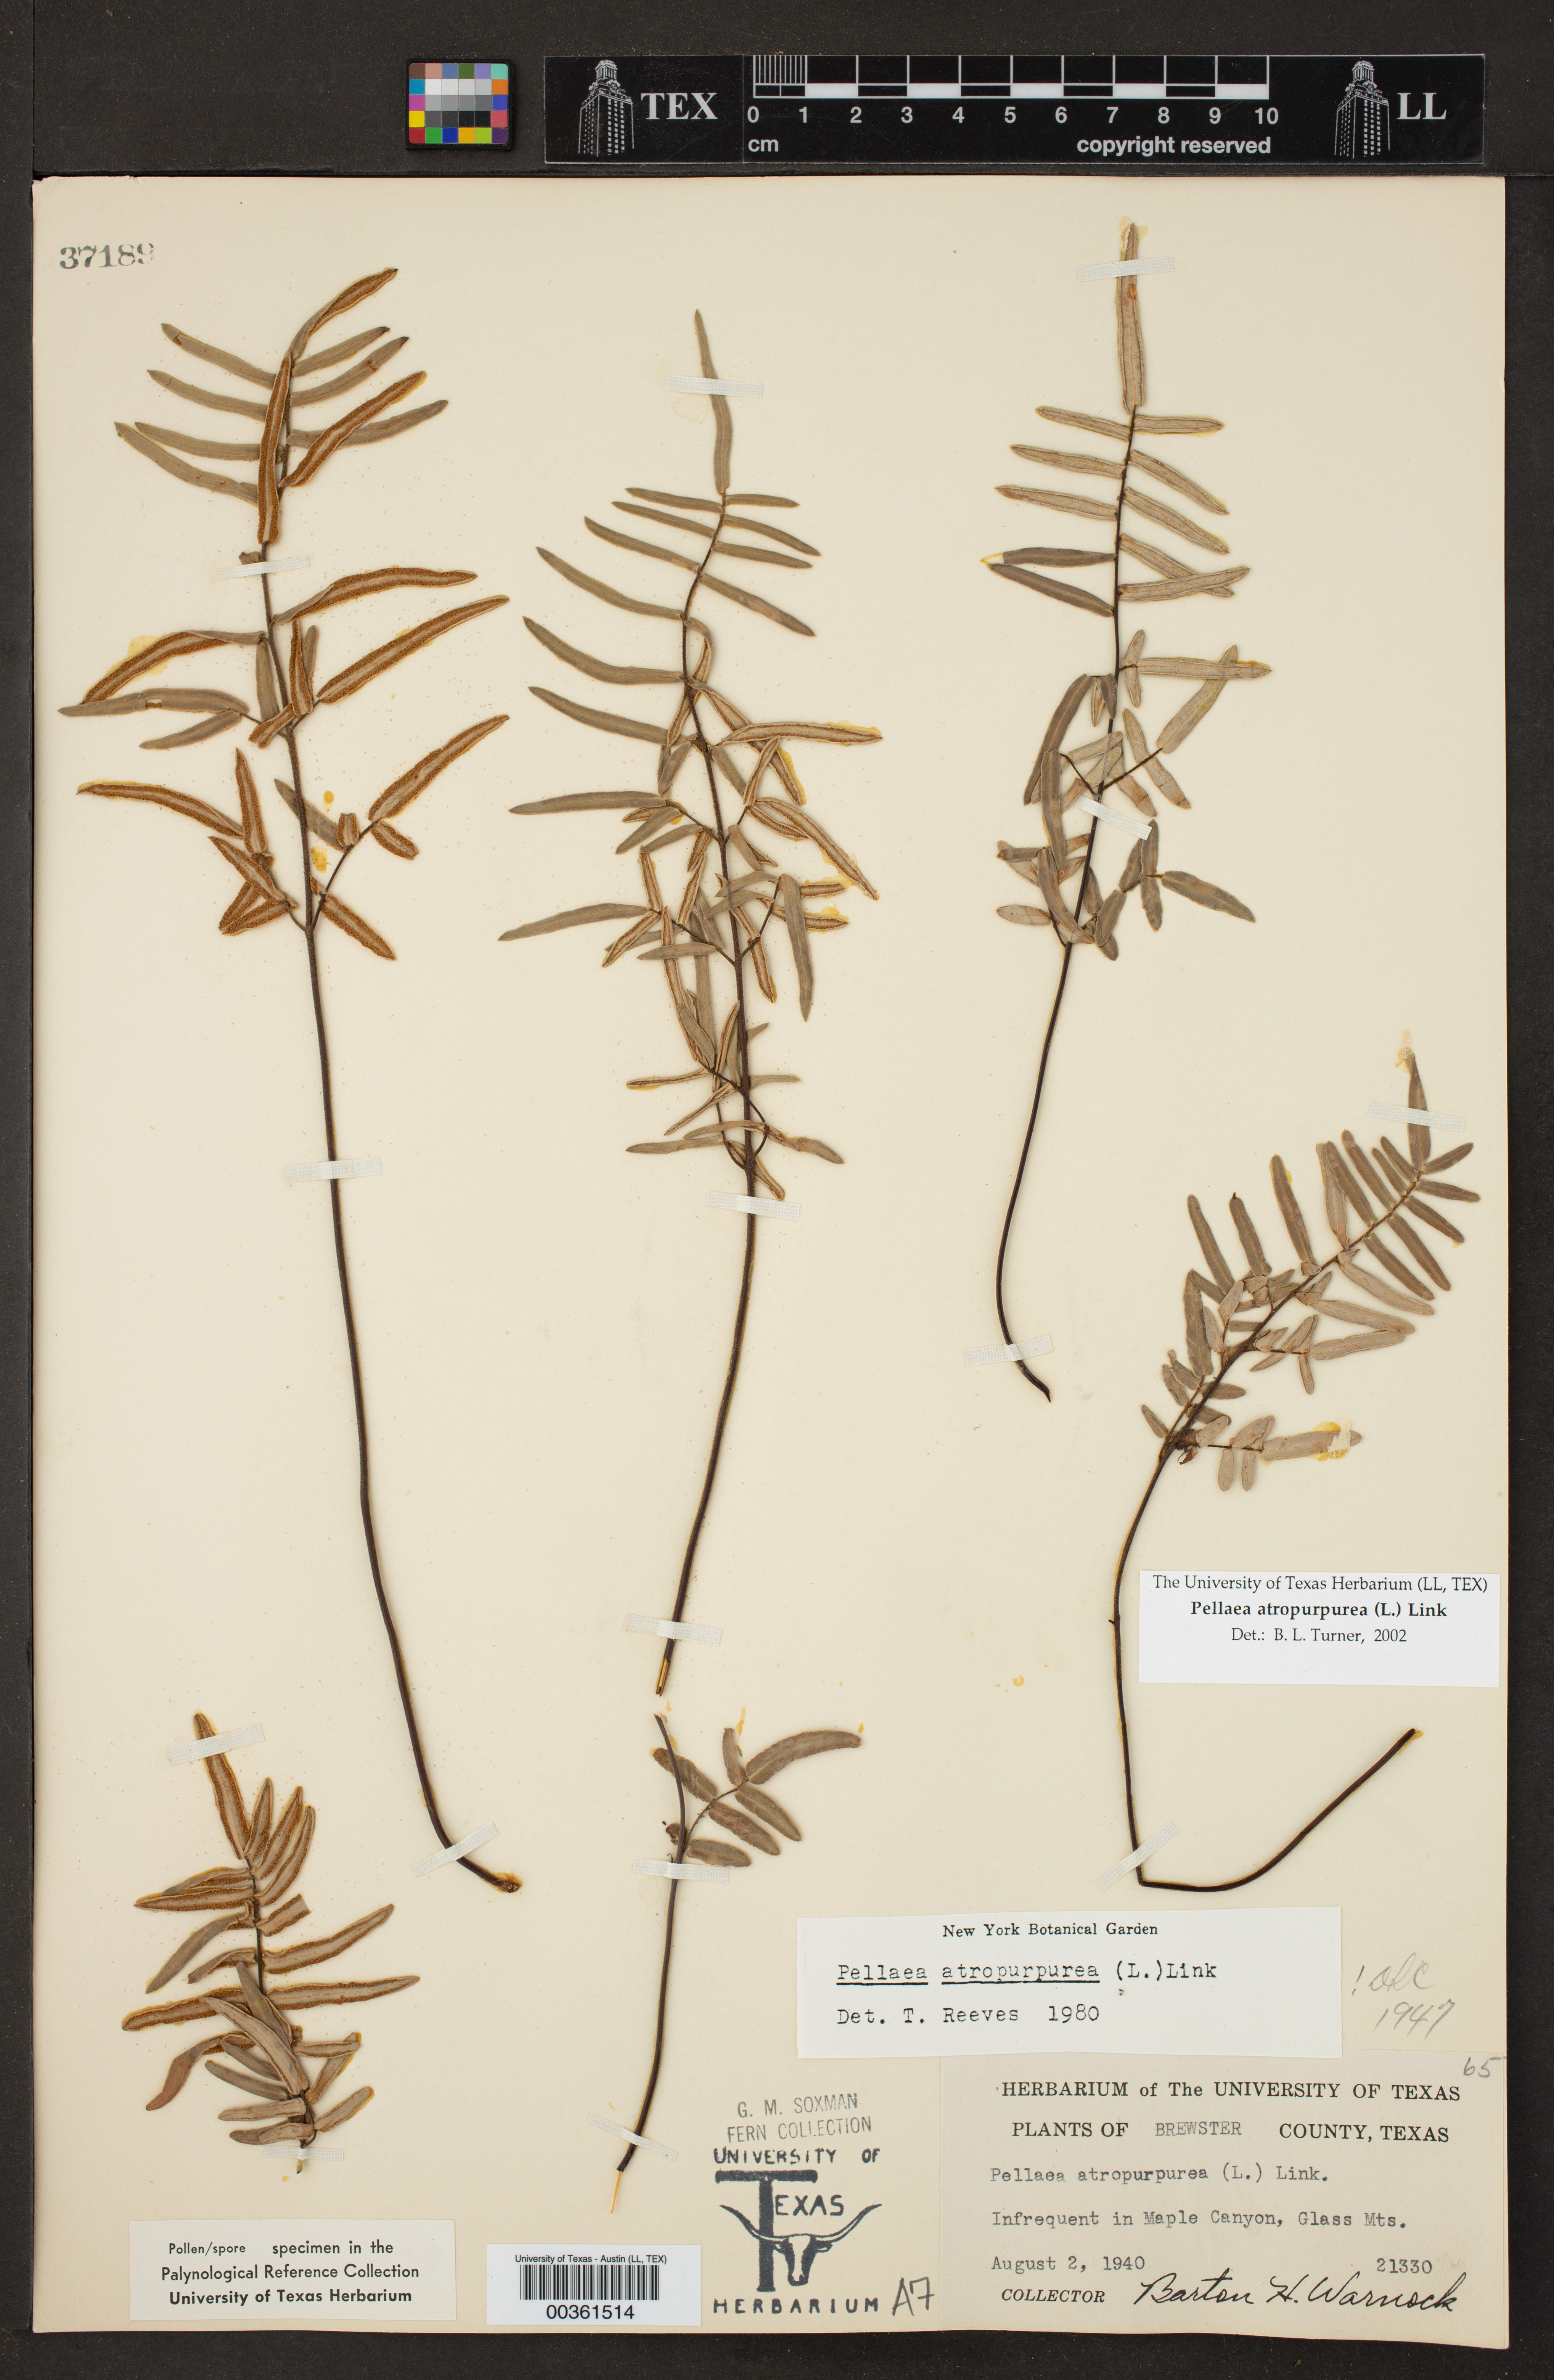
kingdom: Plantae
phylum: Tracheophyta
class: Polypodiopsida
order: Polypodiales
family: Pteridaceae
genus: Pellaea
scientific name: Pellaea atropurpurea
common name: Hairy cliffbrake
